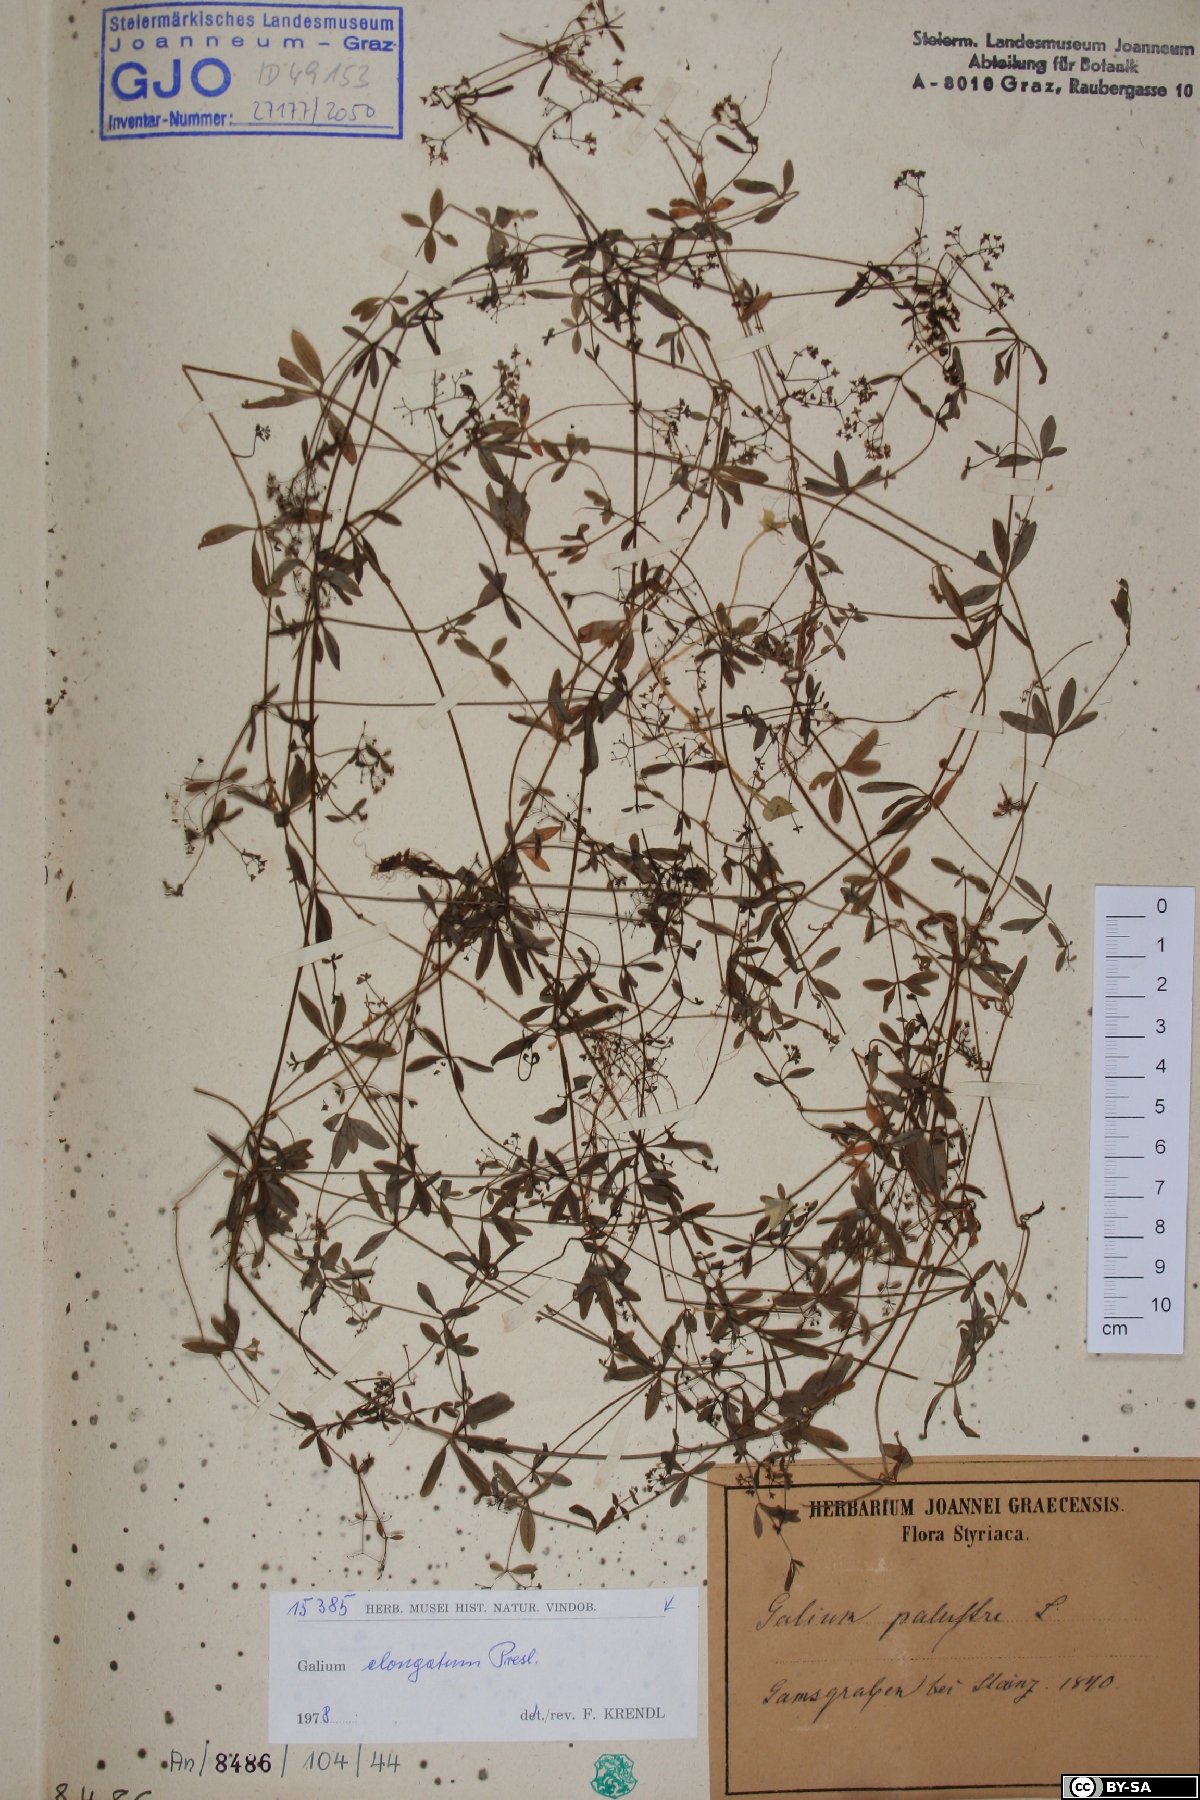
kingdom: Plantae
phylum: Tracheophyta
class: Magnoliopsida
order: Gentianales
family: Rubiaceae
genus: Galium
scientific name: Galium palustre
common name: Common marsh-bedstraw
